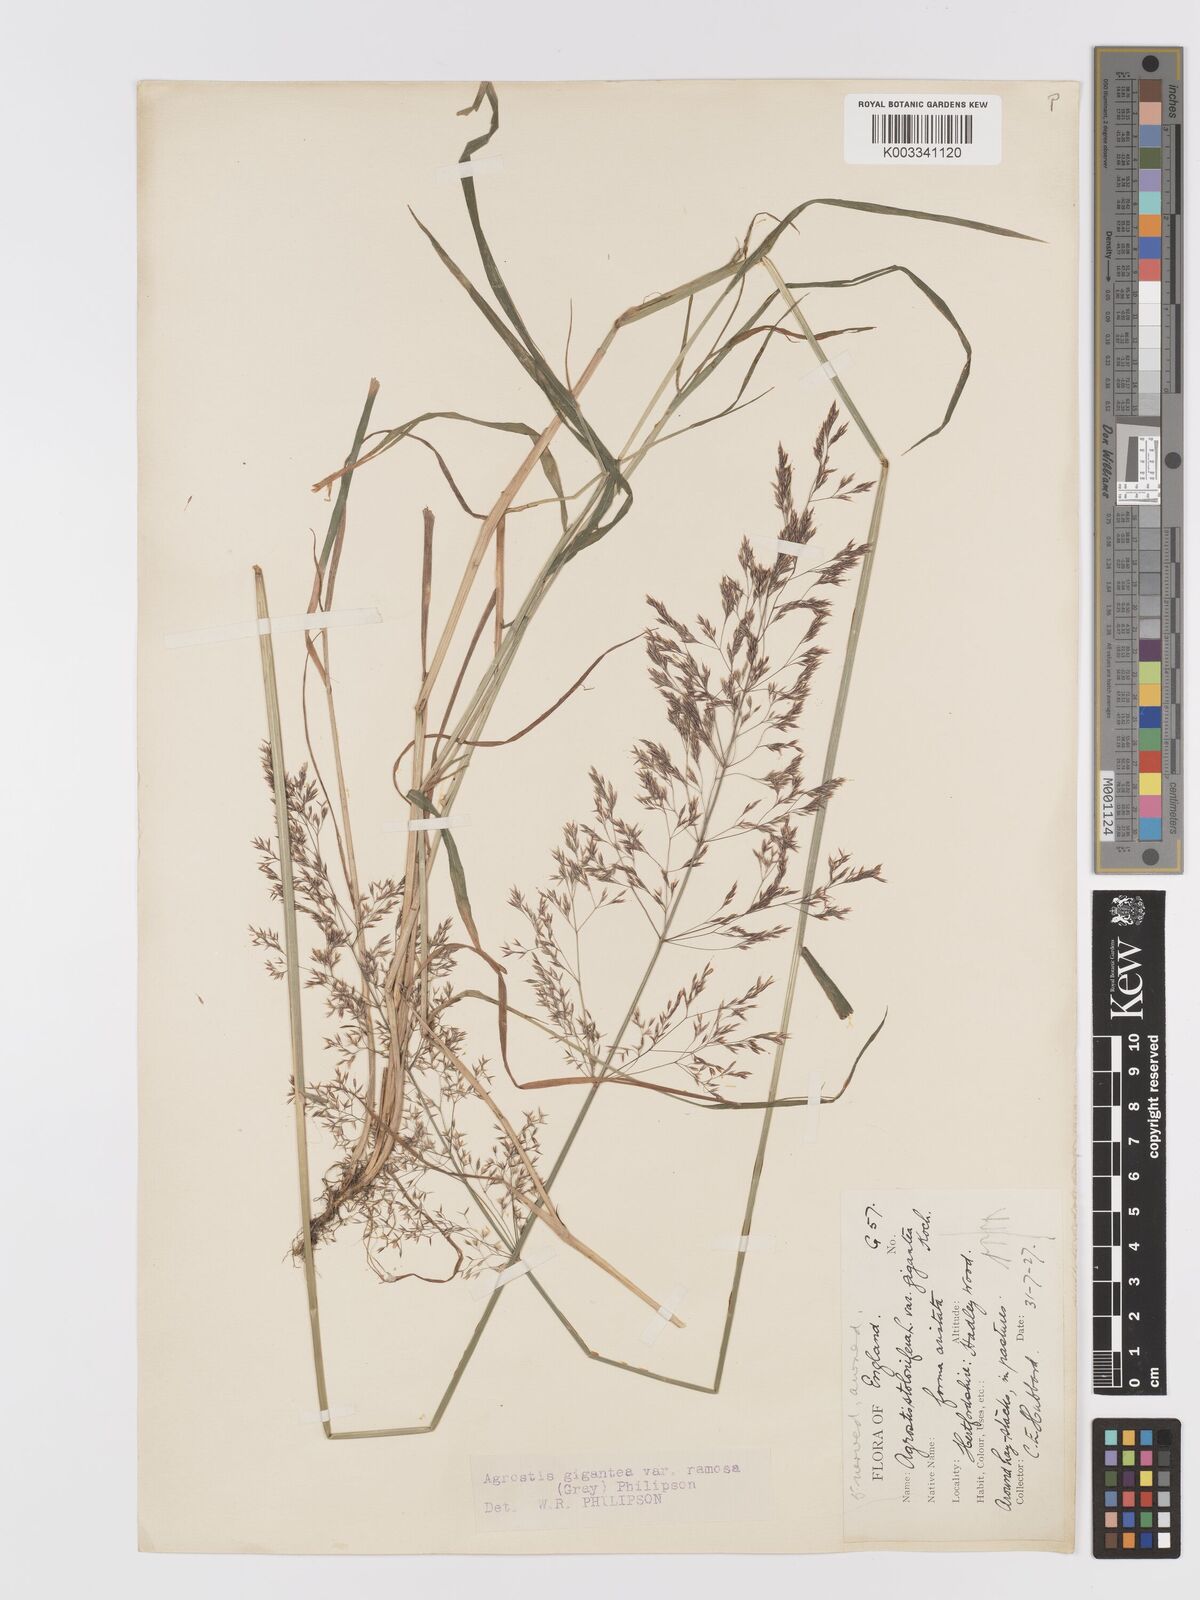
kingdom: Plantae
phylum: Tracheophyta
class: Liliopsida
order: Poales
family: Poaceae
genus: Agrostis
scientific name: Agrostis gigantea
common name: Black bent
